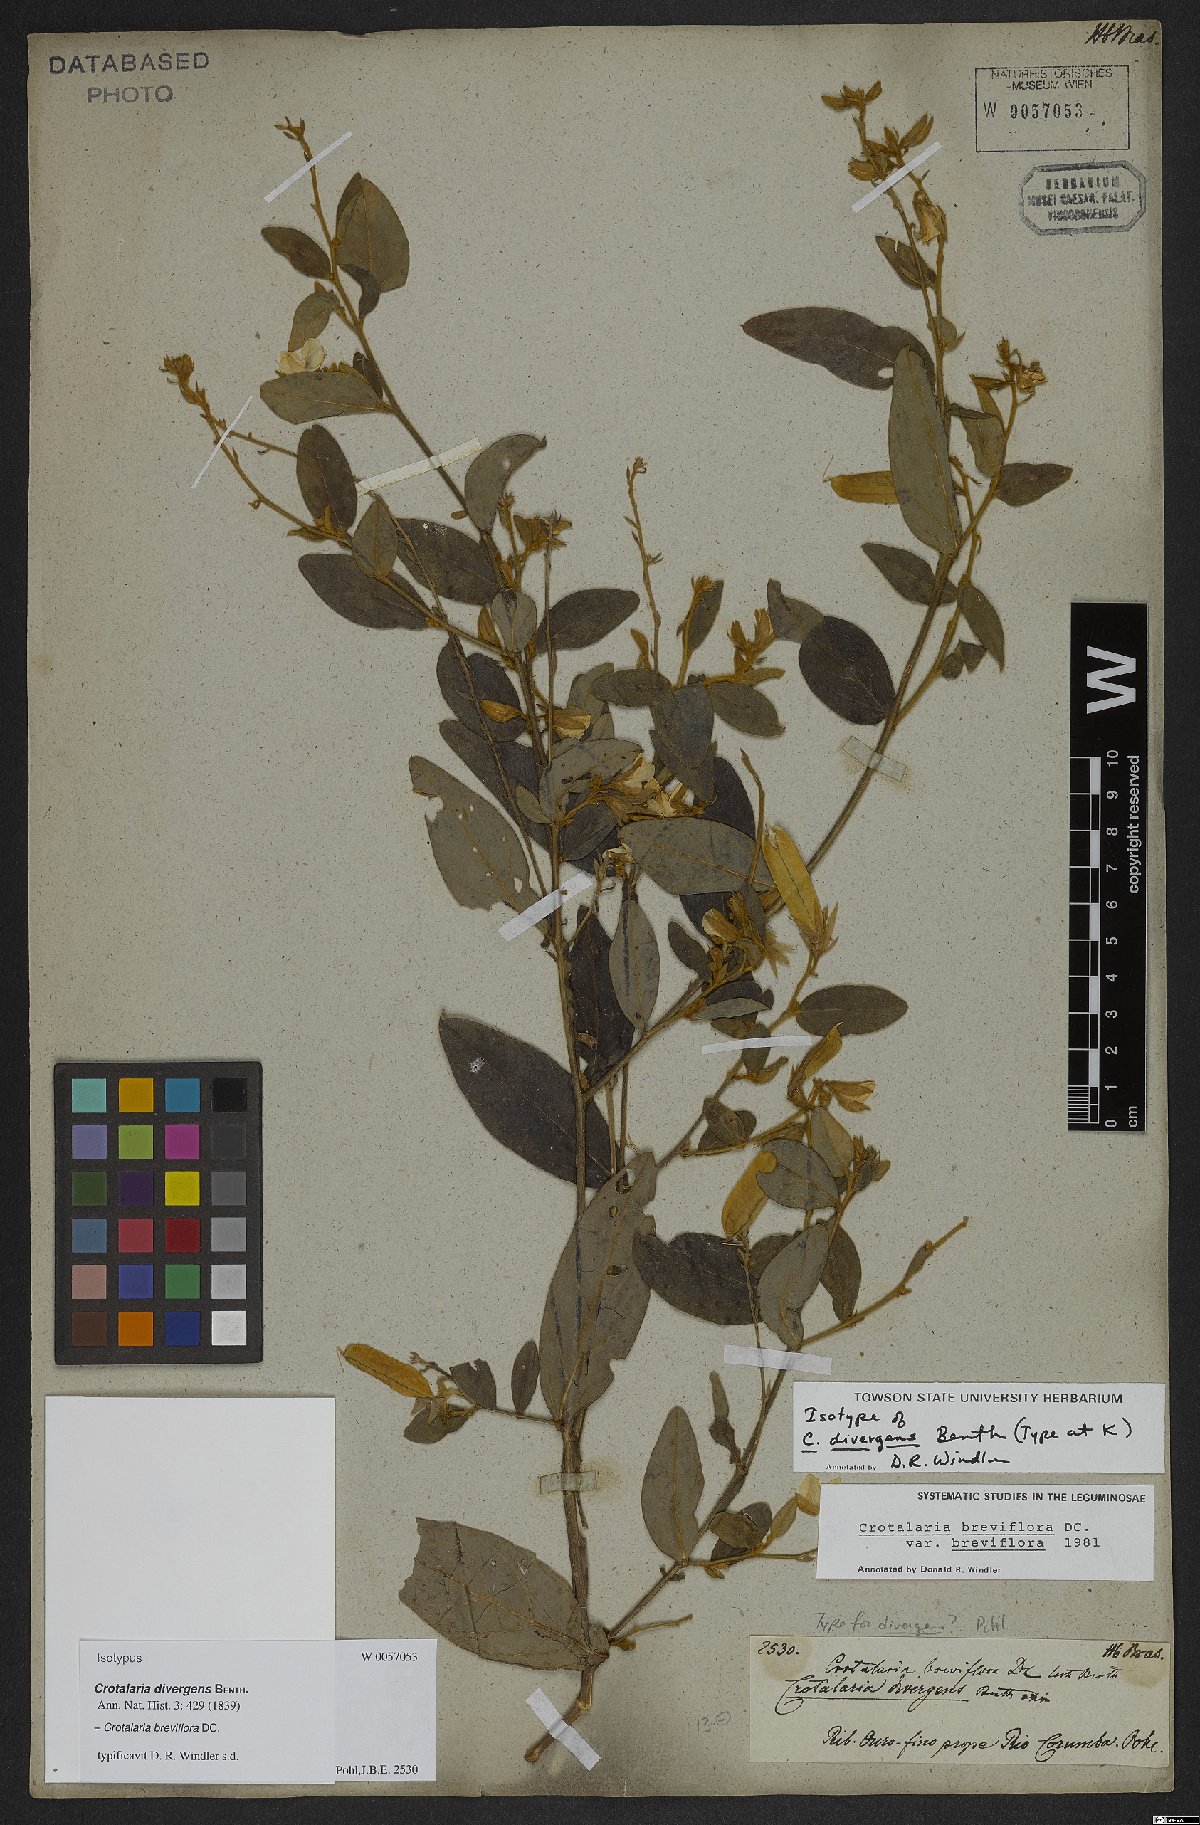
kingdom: Plantae
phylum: Tracheophyta
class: Magnoliopsida
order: Fabales
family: Fabaceae
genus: Crotalaria
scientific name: Crotalaria breviflora
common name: Short-flower crotalaria
